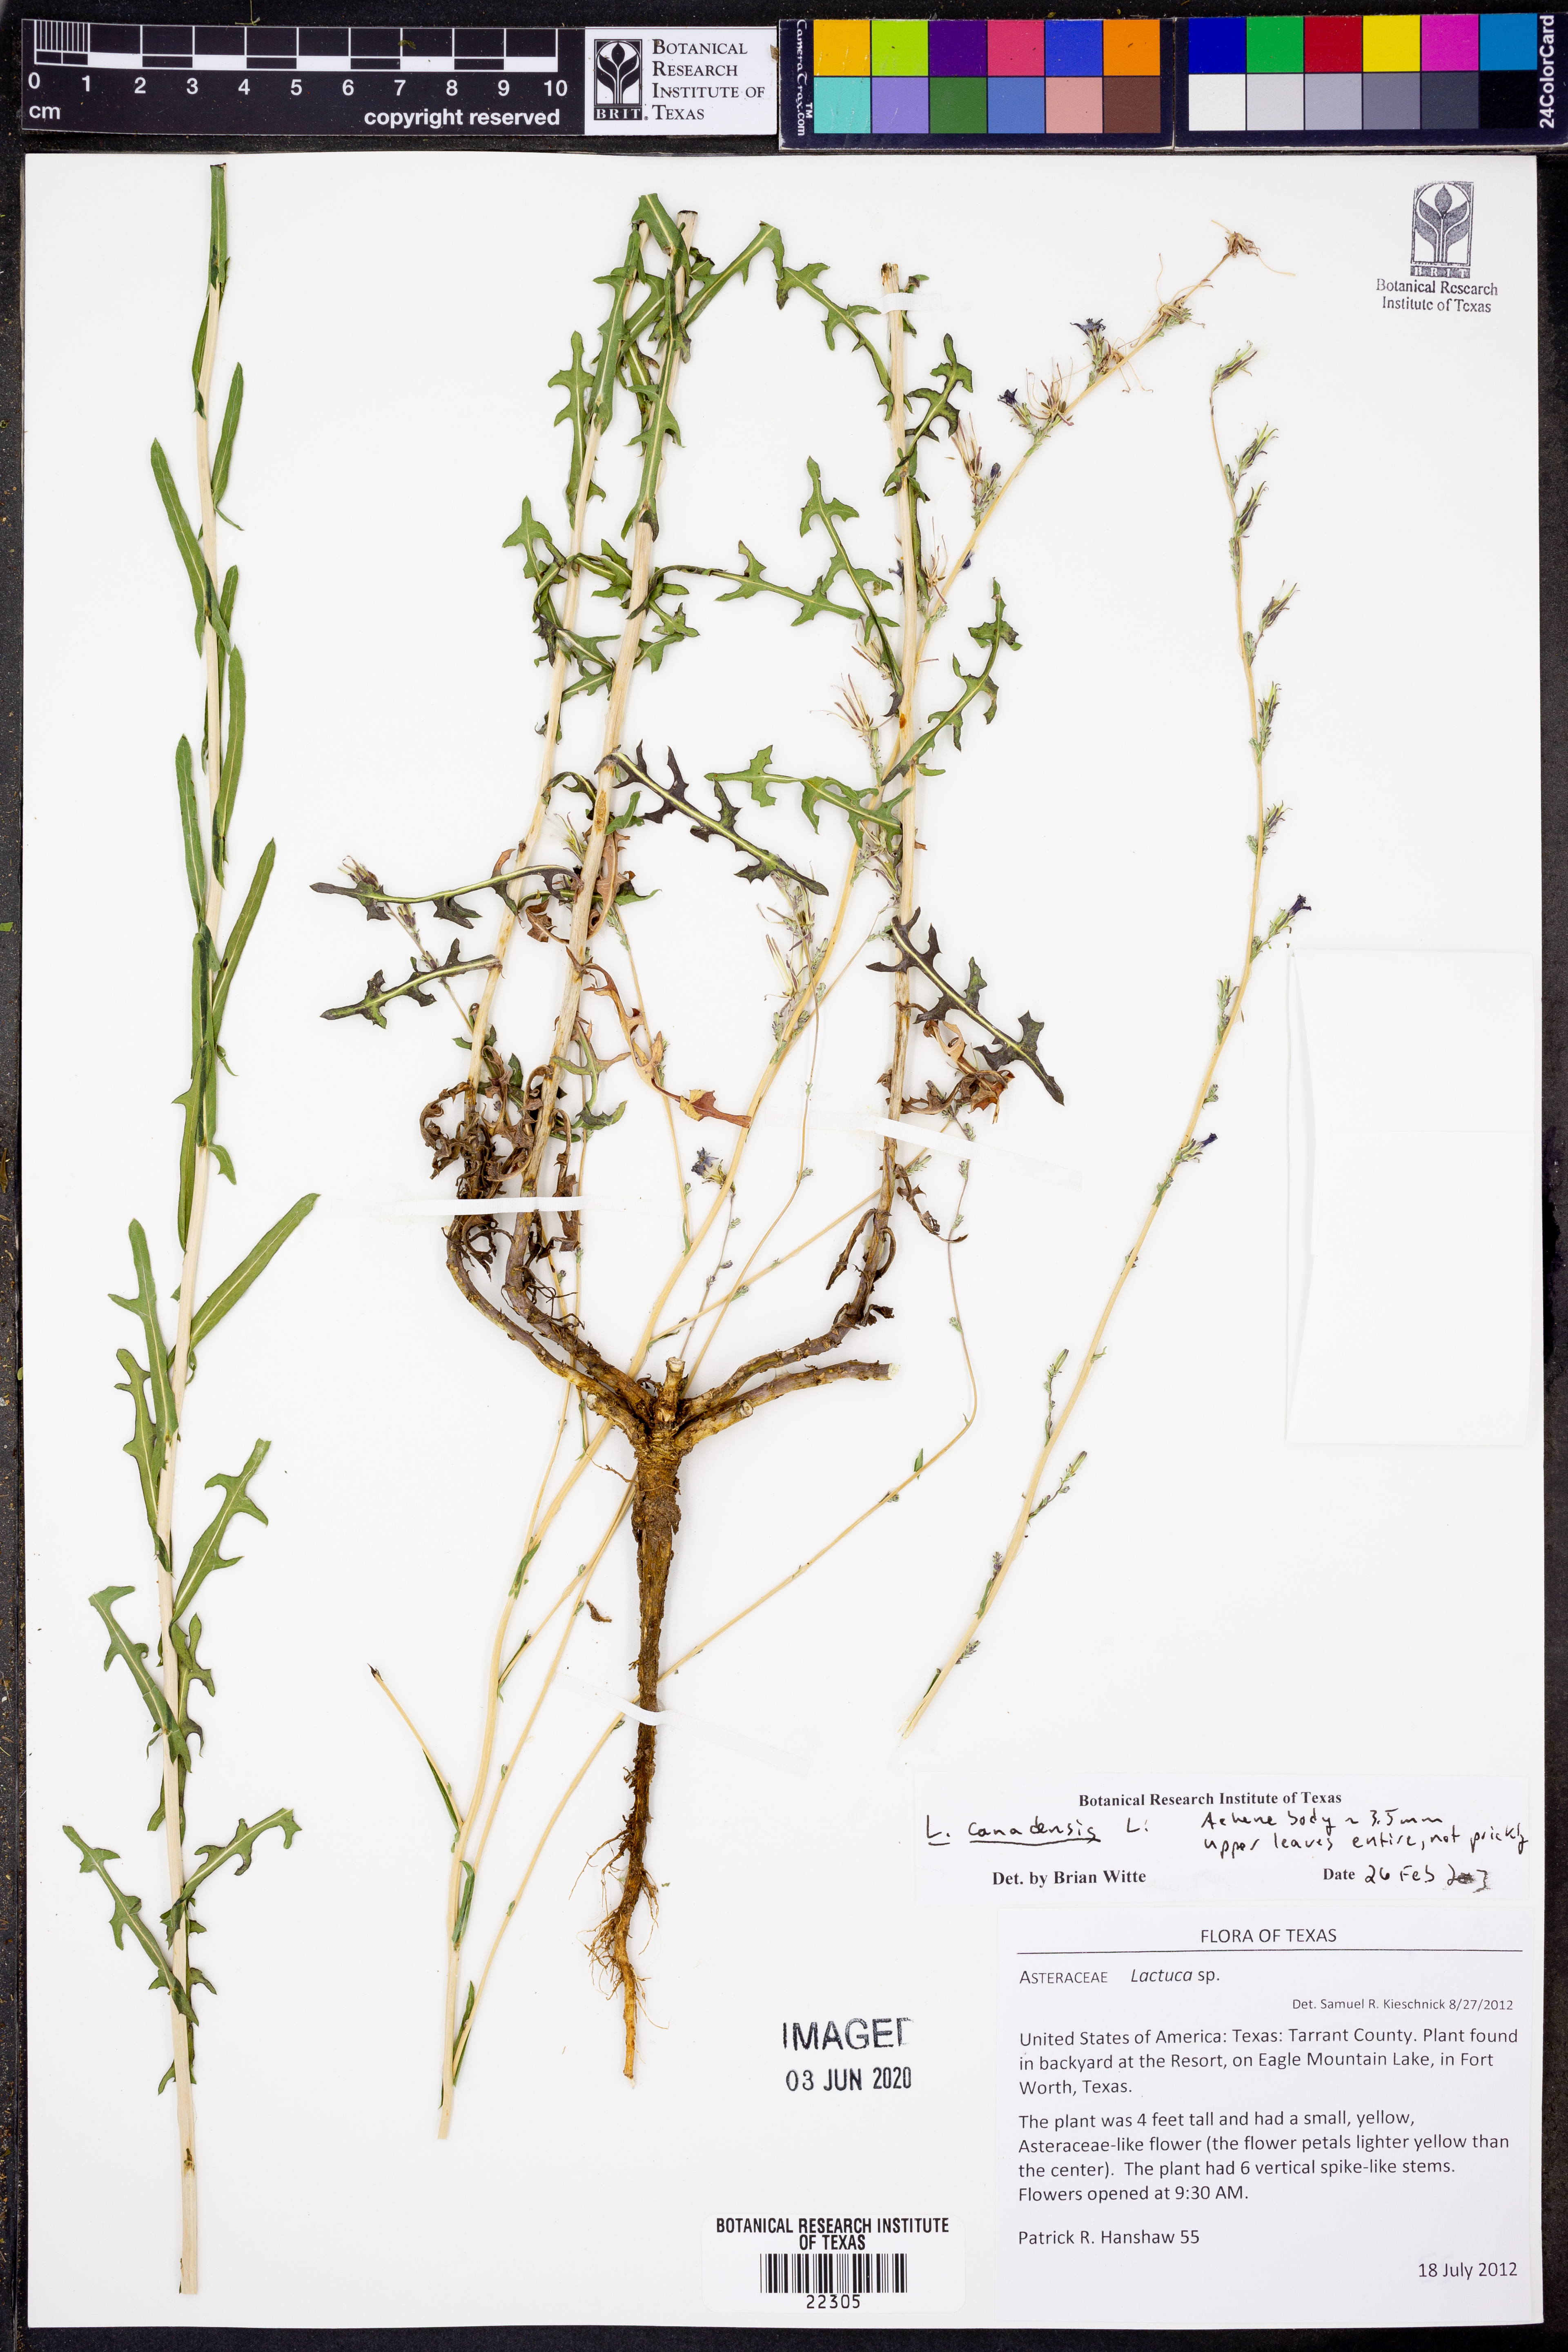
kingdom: Plantae
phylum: Tracheophyta
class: Magnoliopsida
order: Asterales
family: Asteraceae
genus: Lactuca
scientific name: Lactuca canadensis
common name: Canada lettuce
